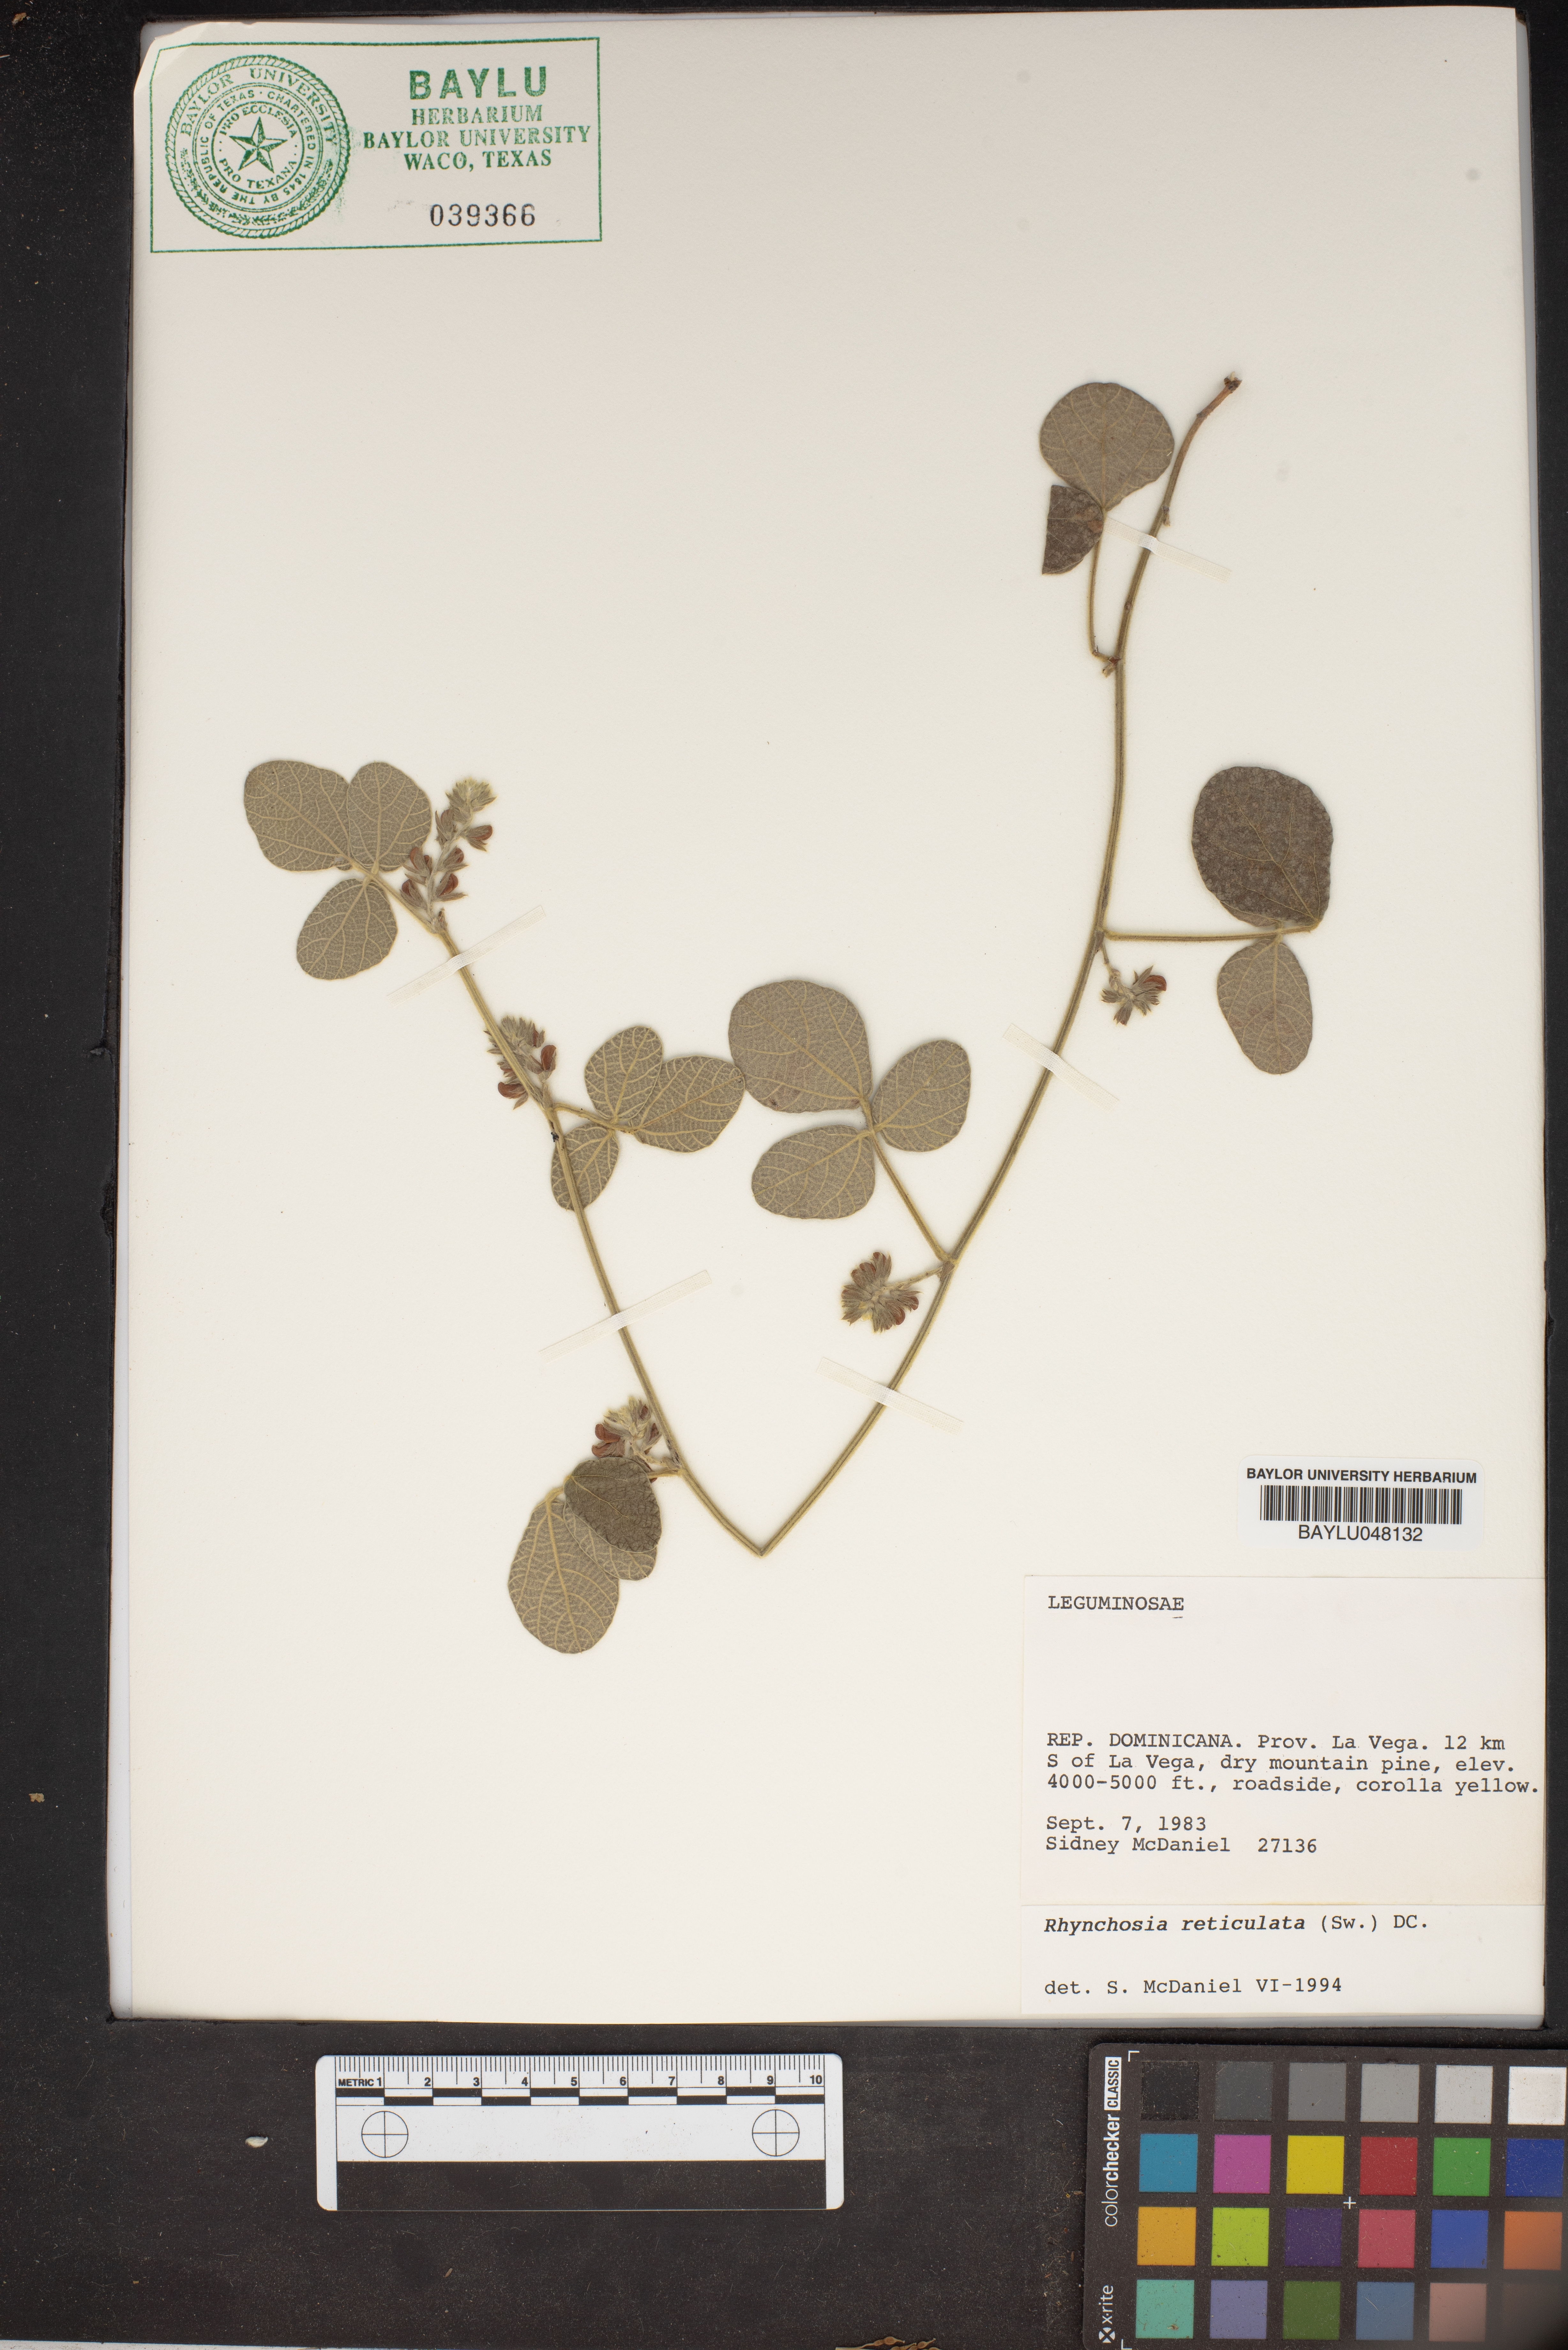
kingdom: Plantae
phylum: Tracheophyta
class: Magnoliopsida
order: Fabales
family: Fabaceae
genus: Rhynchosia
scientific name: Rhynchosia reticulata
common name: Pea withe
